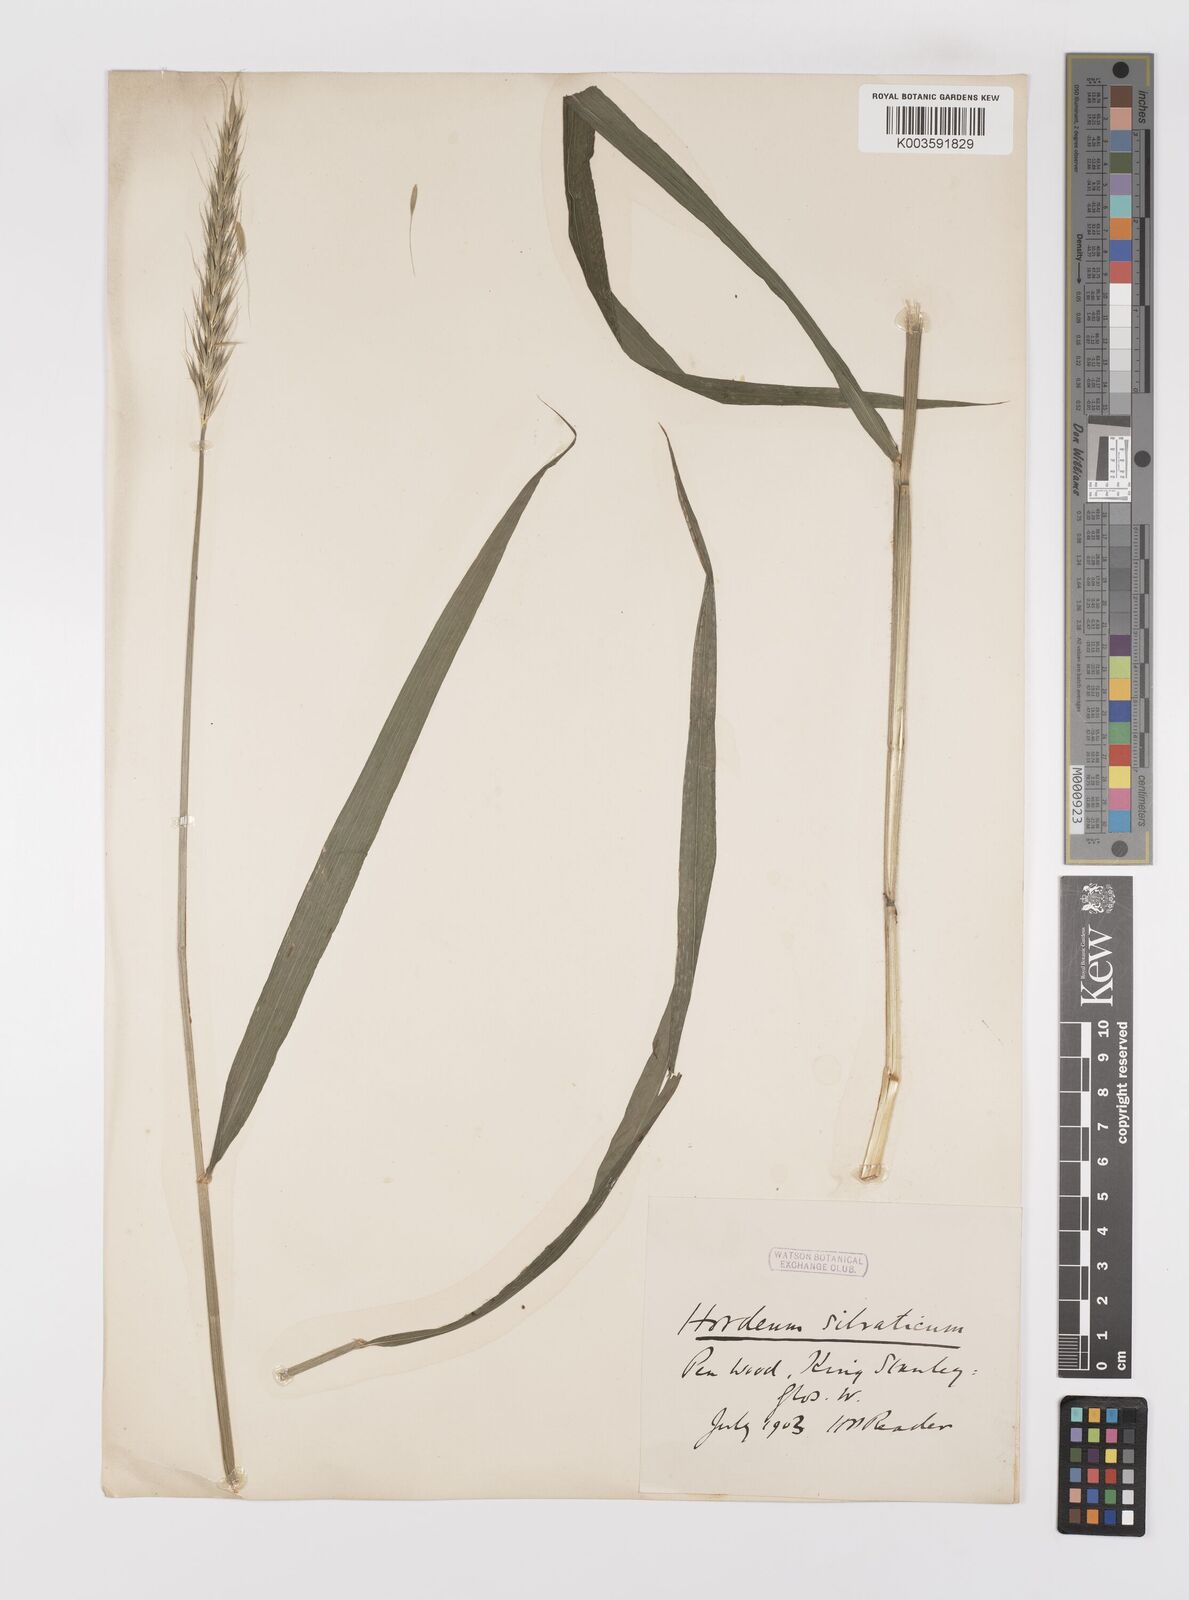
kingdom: Plantae
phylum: Tracheophyta
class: Liliopsida
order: Poales
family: Poaceae
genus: Hordelymus
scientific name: Hordelymus europaeus
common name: Wood-barley
